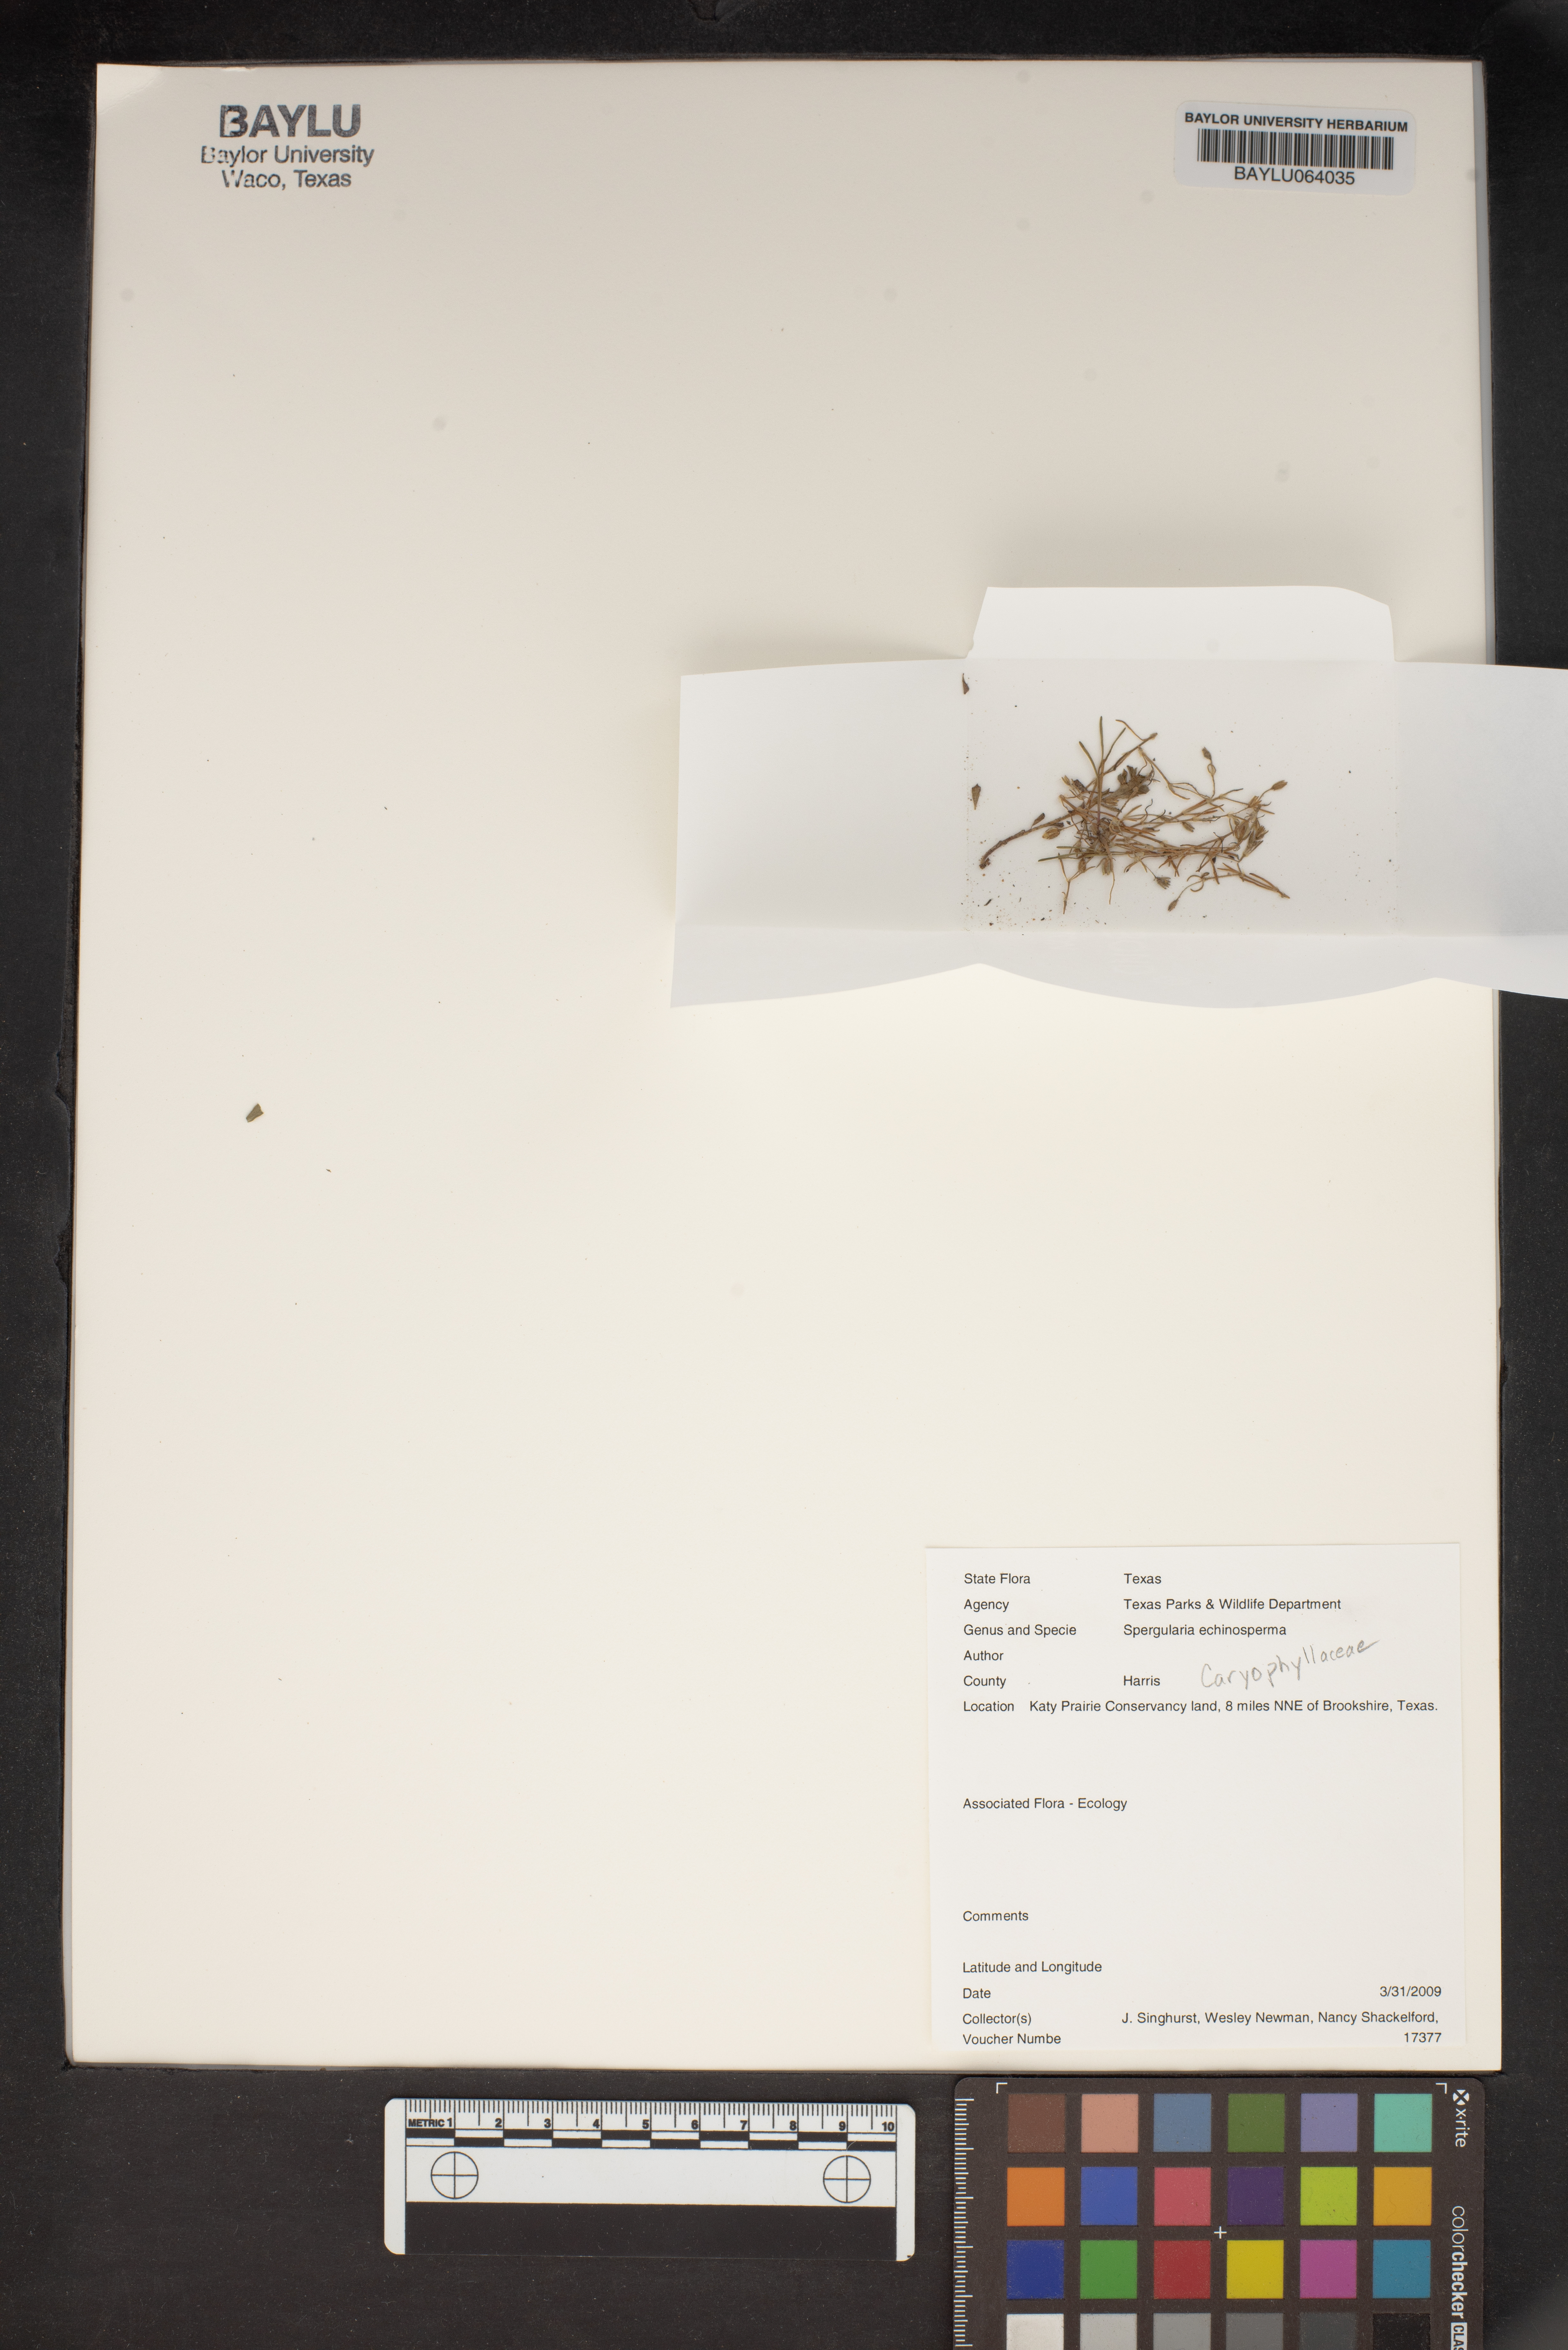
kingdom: Plantae
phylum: Tracheophyta
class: Magnoliopsida
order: Caryophyllales
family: Caryophyllaceae
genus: Spergularia
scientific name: Spergularia echinosperma
